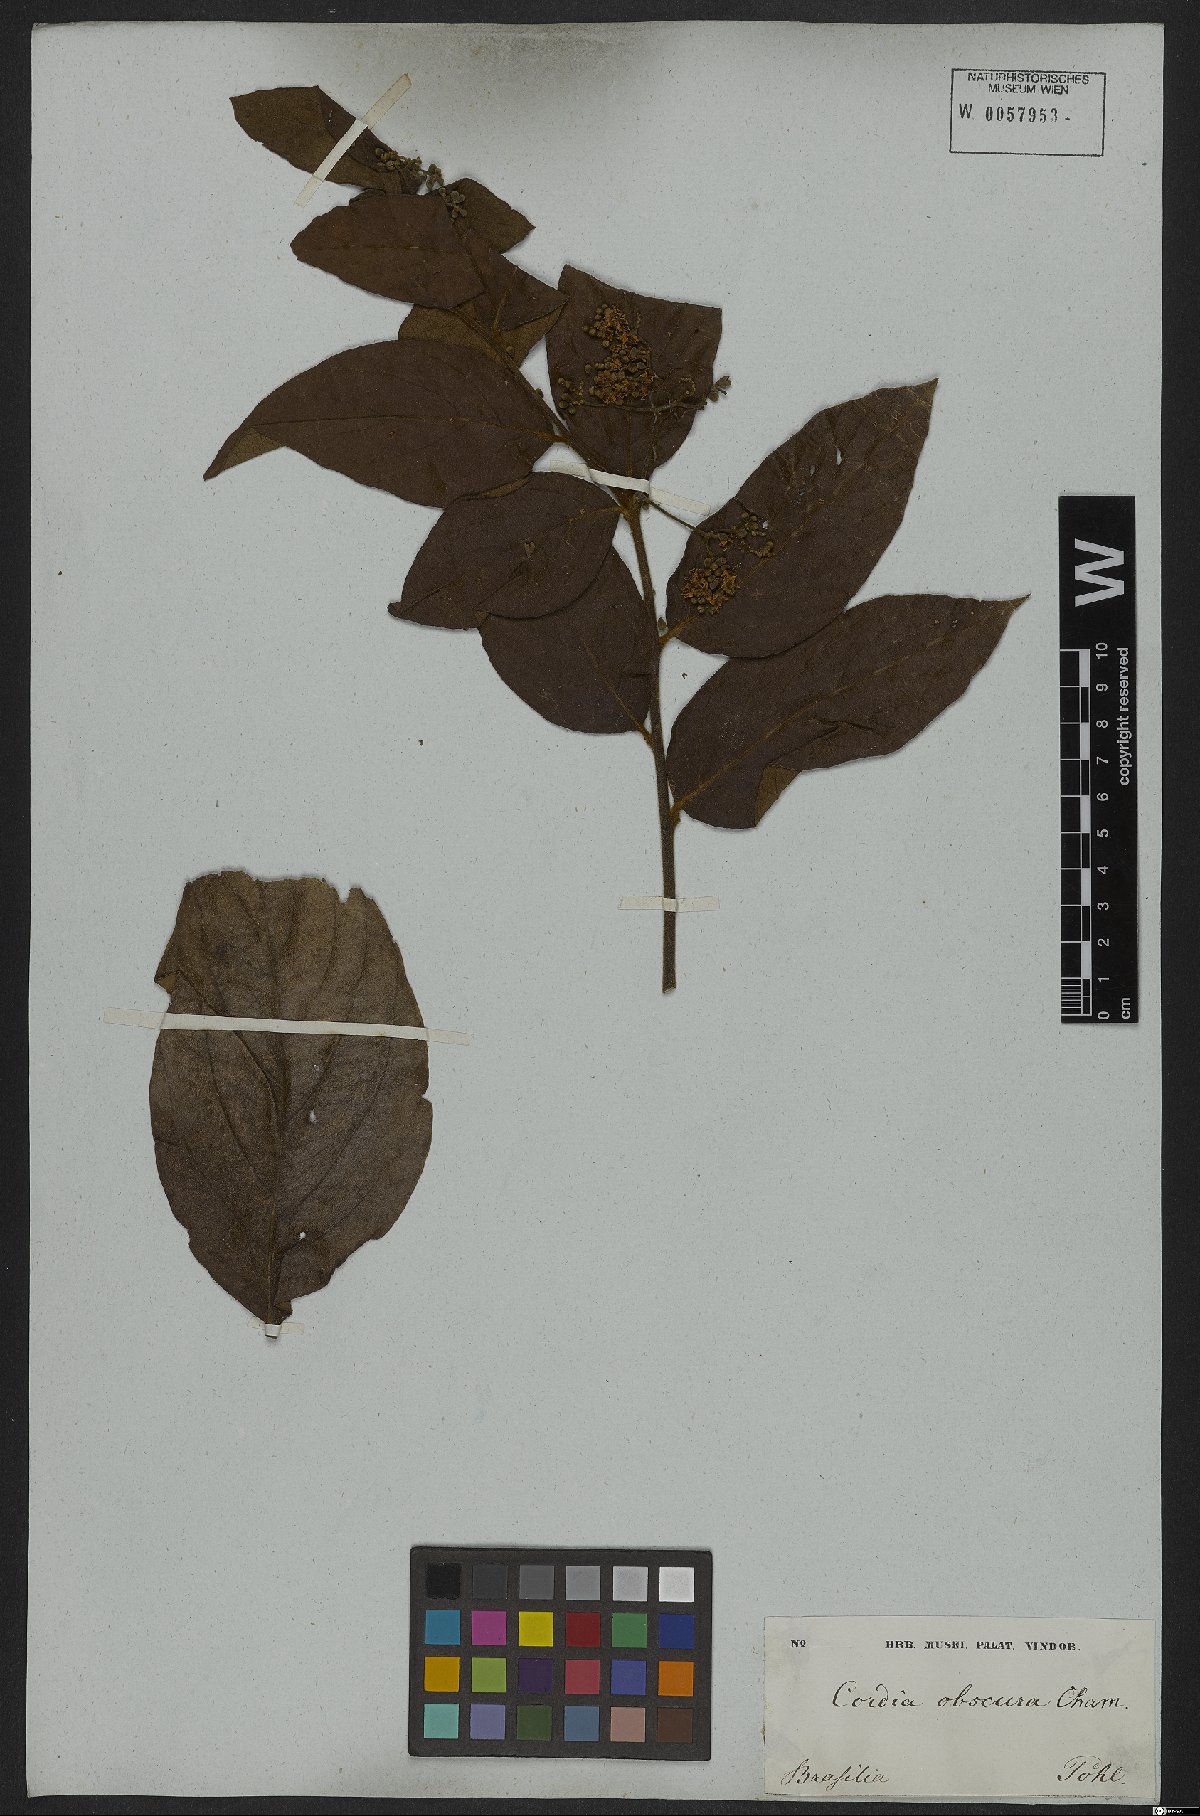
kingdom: Plantae
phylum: Tracheophyta
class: Magnoliopsida
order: Boraginales
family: Cordiaceae
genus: Cordia
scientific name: Cordia sellowiana
